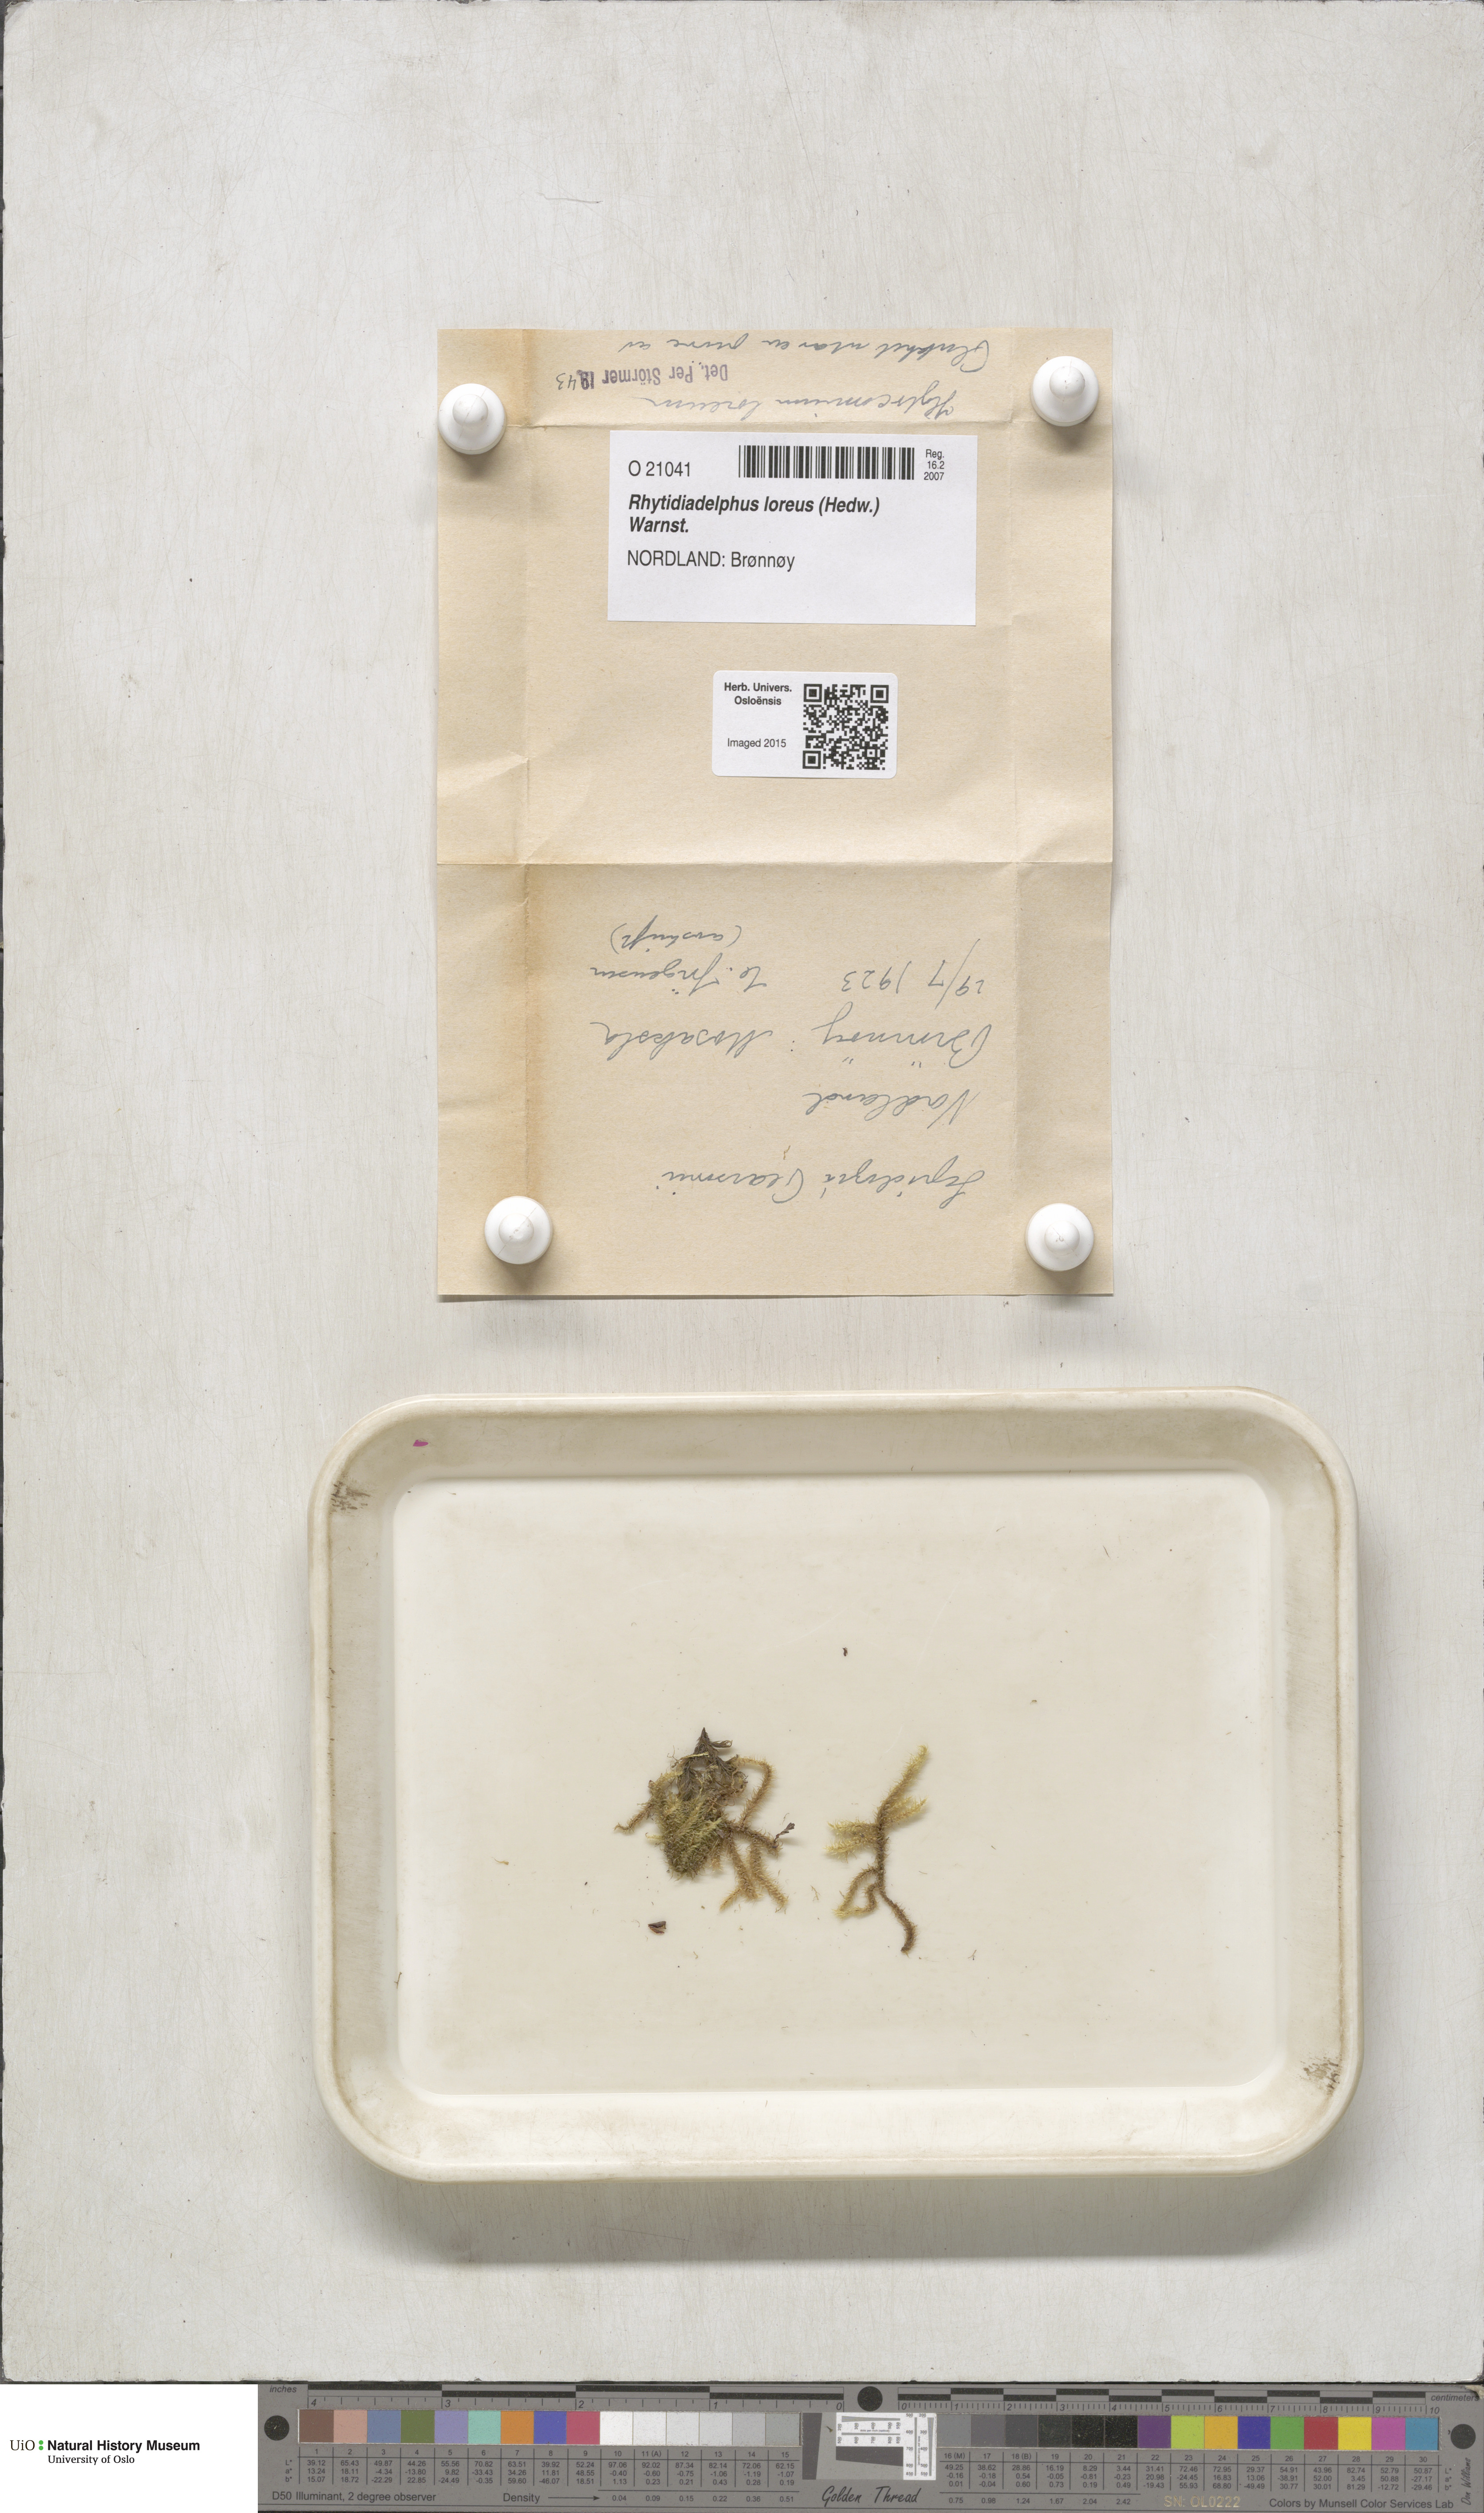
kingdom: Plantae
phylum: Bryophyta
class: Bryopsida
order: Hypnales
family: Hylocomiaceae
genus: Rhytidiadelphus
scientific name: Rhytidiadelphus loreus
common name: Lanky moss
